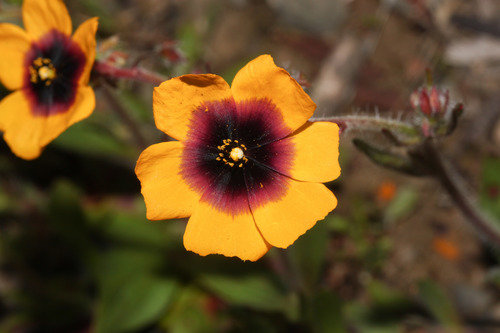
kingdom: Plantae
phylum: Tracheophyta
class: Magnoliopsida
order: Malvales
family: Cistaceae
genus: Tuberaria
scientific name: Tuberaria guttata
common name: Spotted rock-rose
